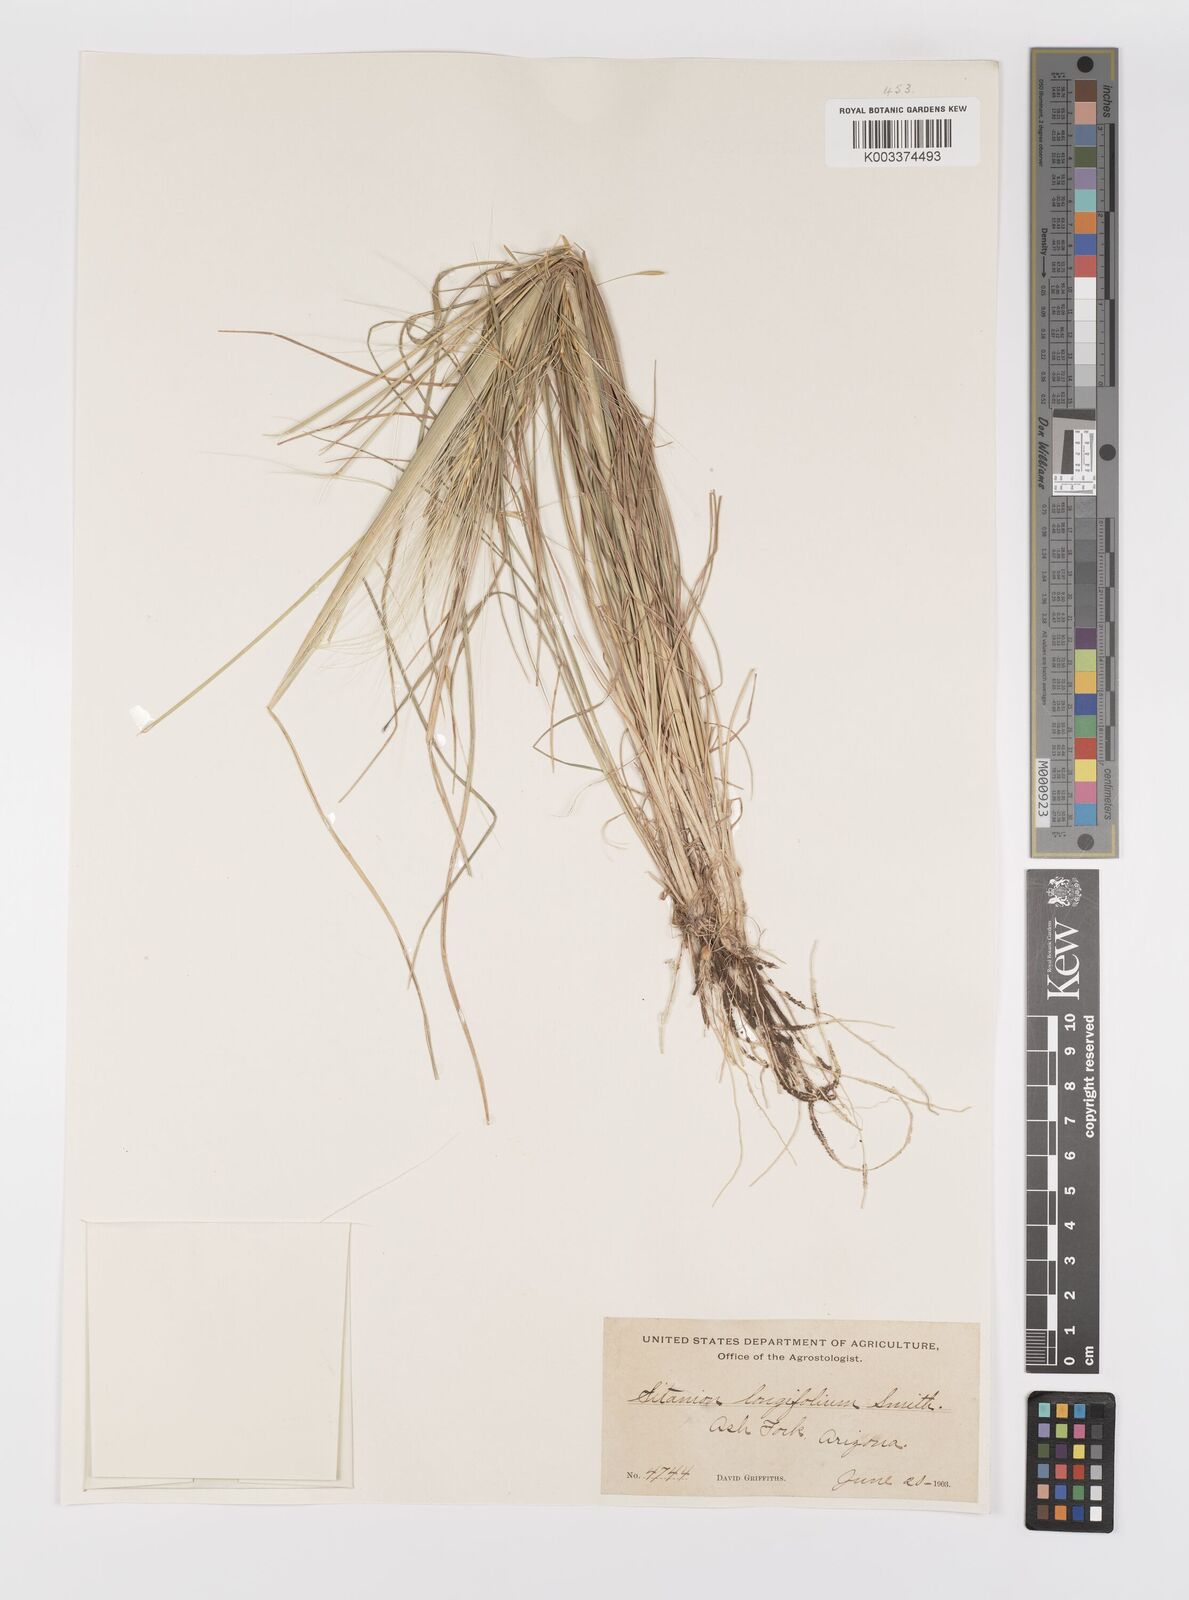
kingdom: Plantae
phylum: Tracheophyta
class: Liliopsida
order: Poales
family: Poaceae
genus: Elymus
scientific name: Elymus elymoides
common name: Bottlebrush squirreltail
